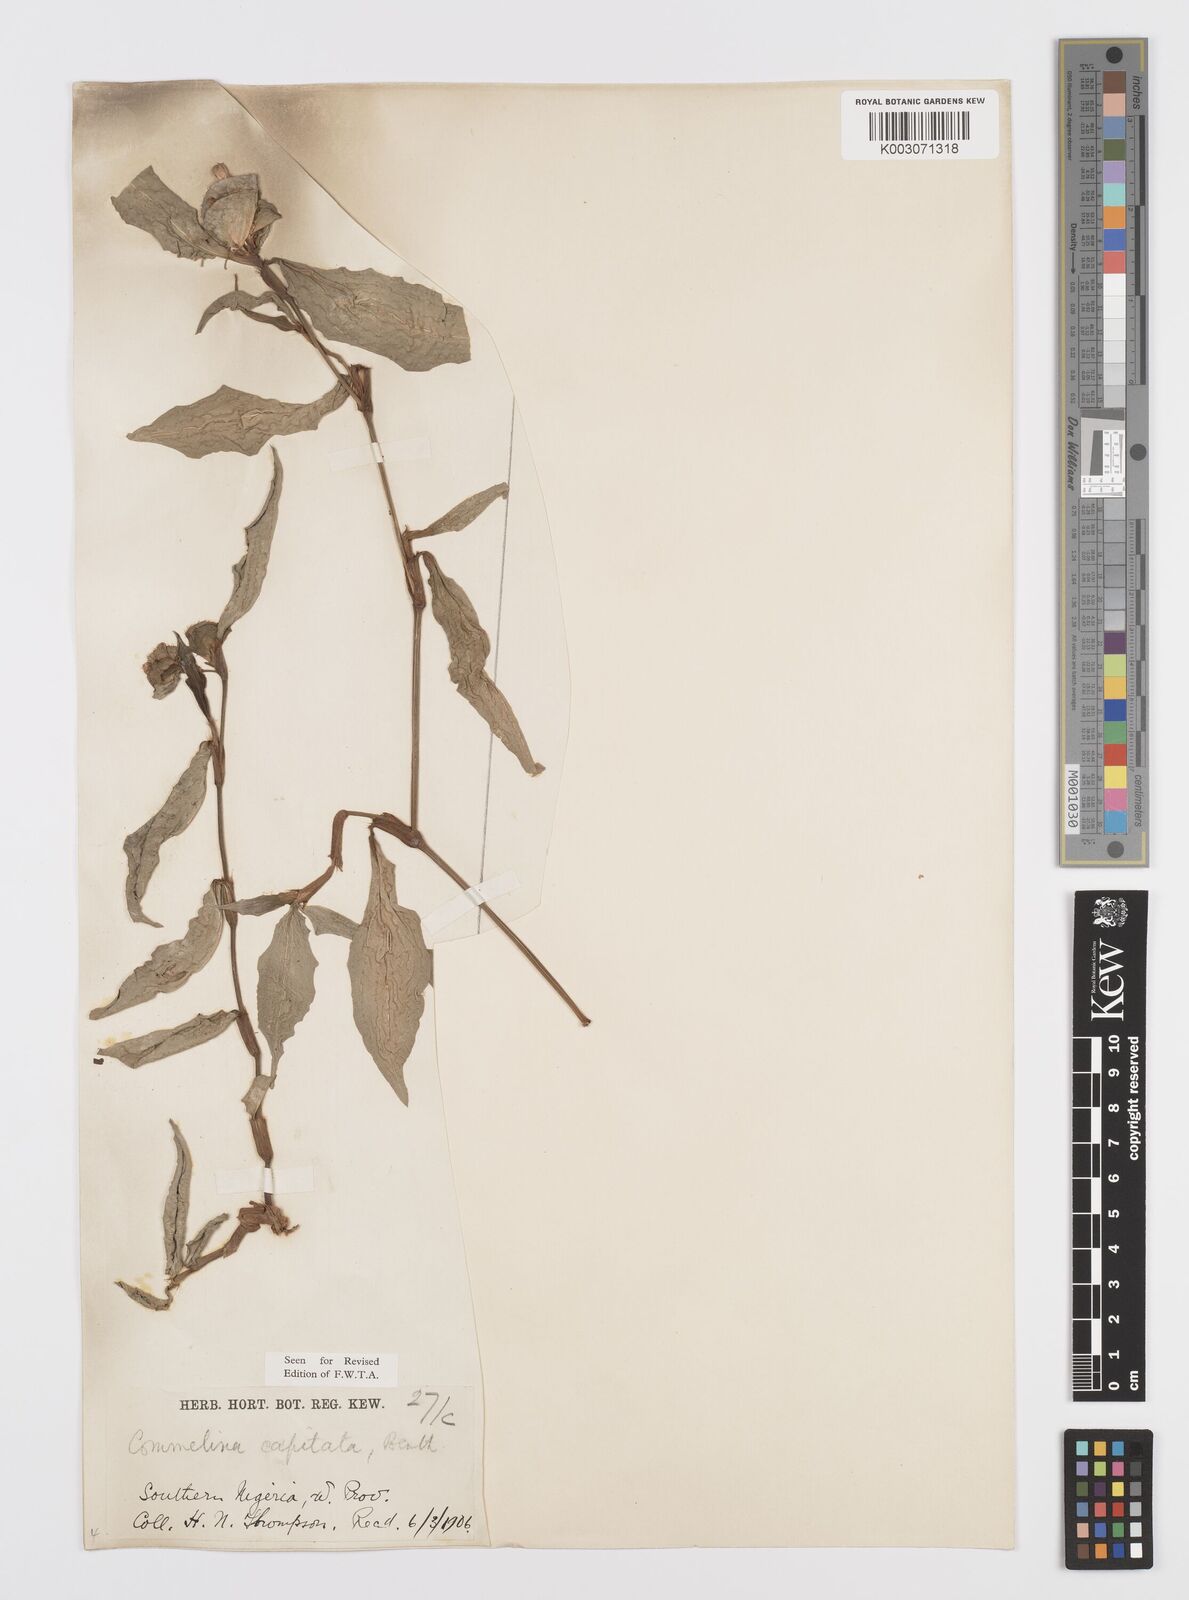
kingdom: Plantae
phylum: Tracheophyta
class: Liliopsida
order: Commelinales
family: Commelinaceae
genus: Commelina
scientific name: Commelina capitata
